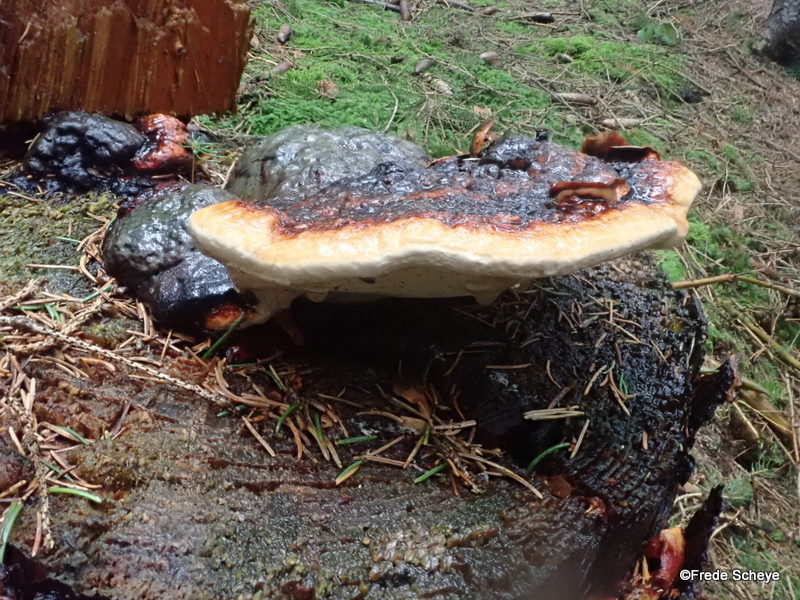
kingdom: Fungi
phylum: Basidiomycota
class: Agaricomycetes
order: Polyporales
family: Fomitopsidaceae
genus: Fomitopsis
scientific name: Fomitopsis pinicola
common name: randbæltet hovporesvamp
